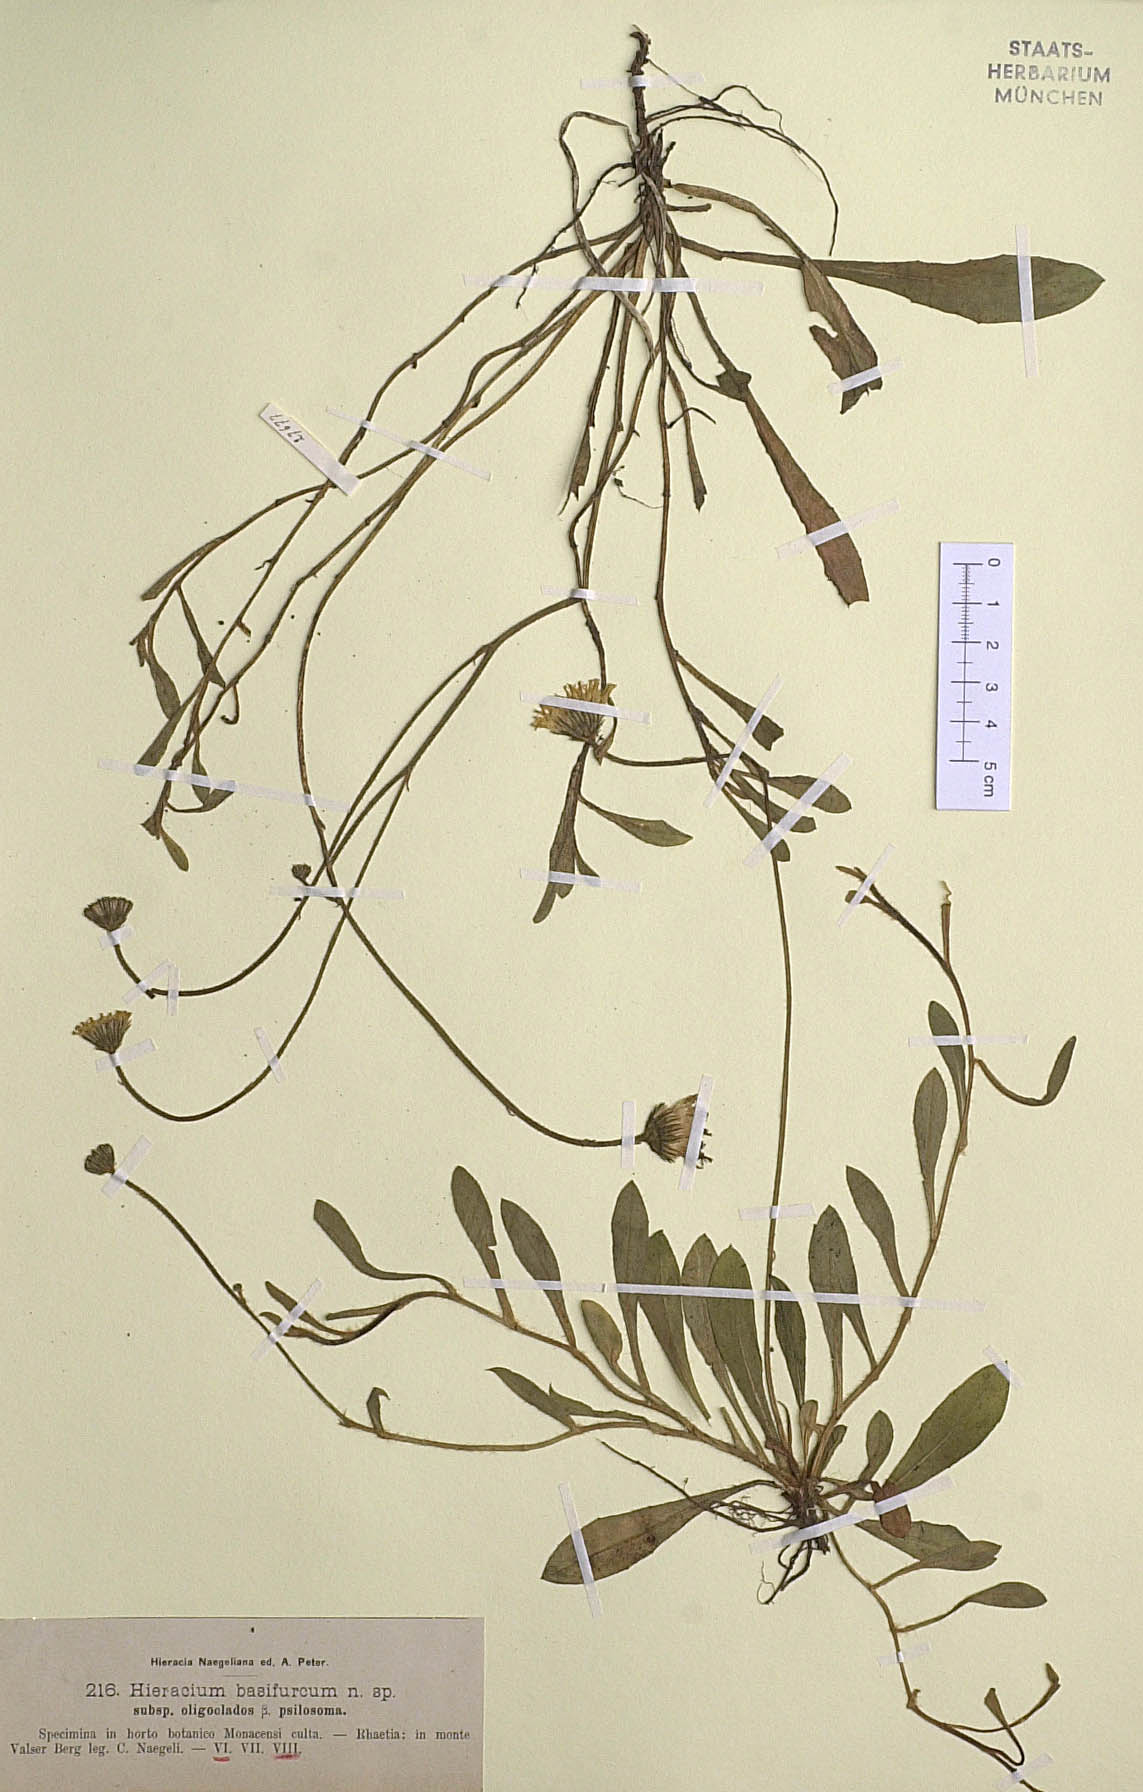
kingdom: Plantae
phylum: Tracheophyta
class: Magnoliopsida
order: Asterales
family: Asteraceae
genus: Pilosella
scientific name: Pilosella basifurca
